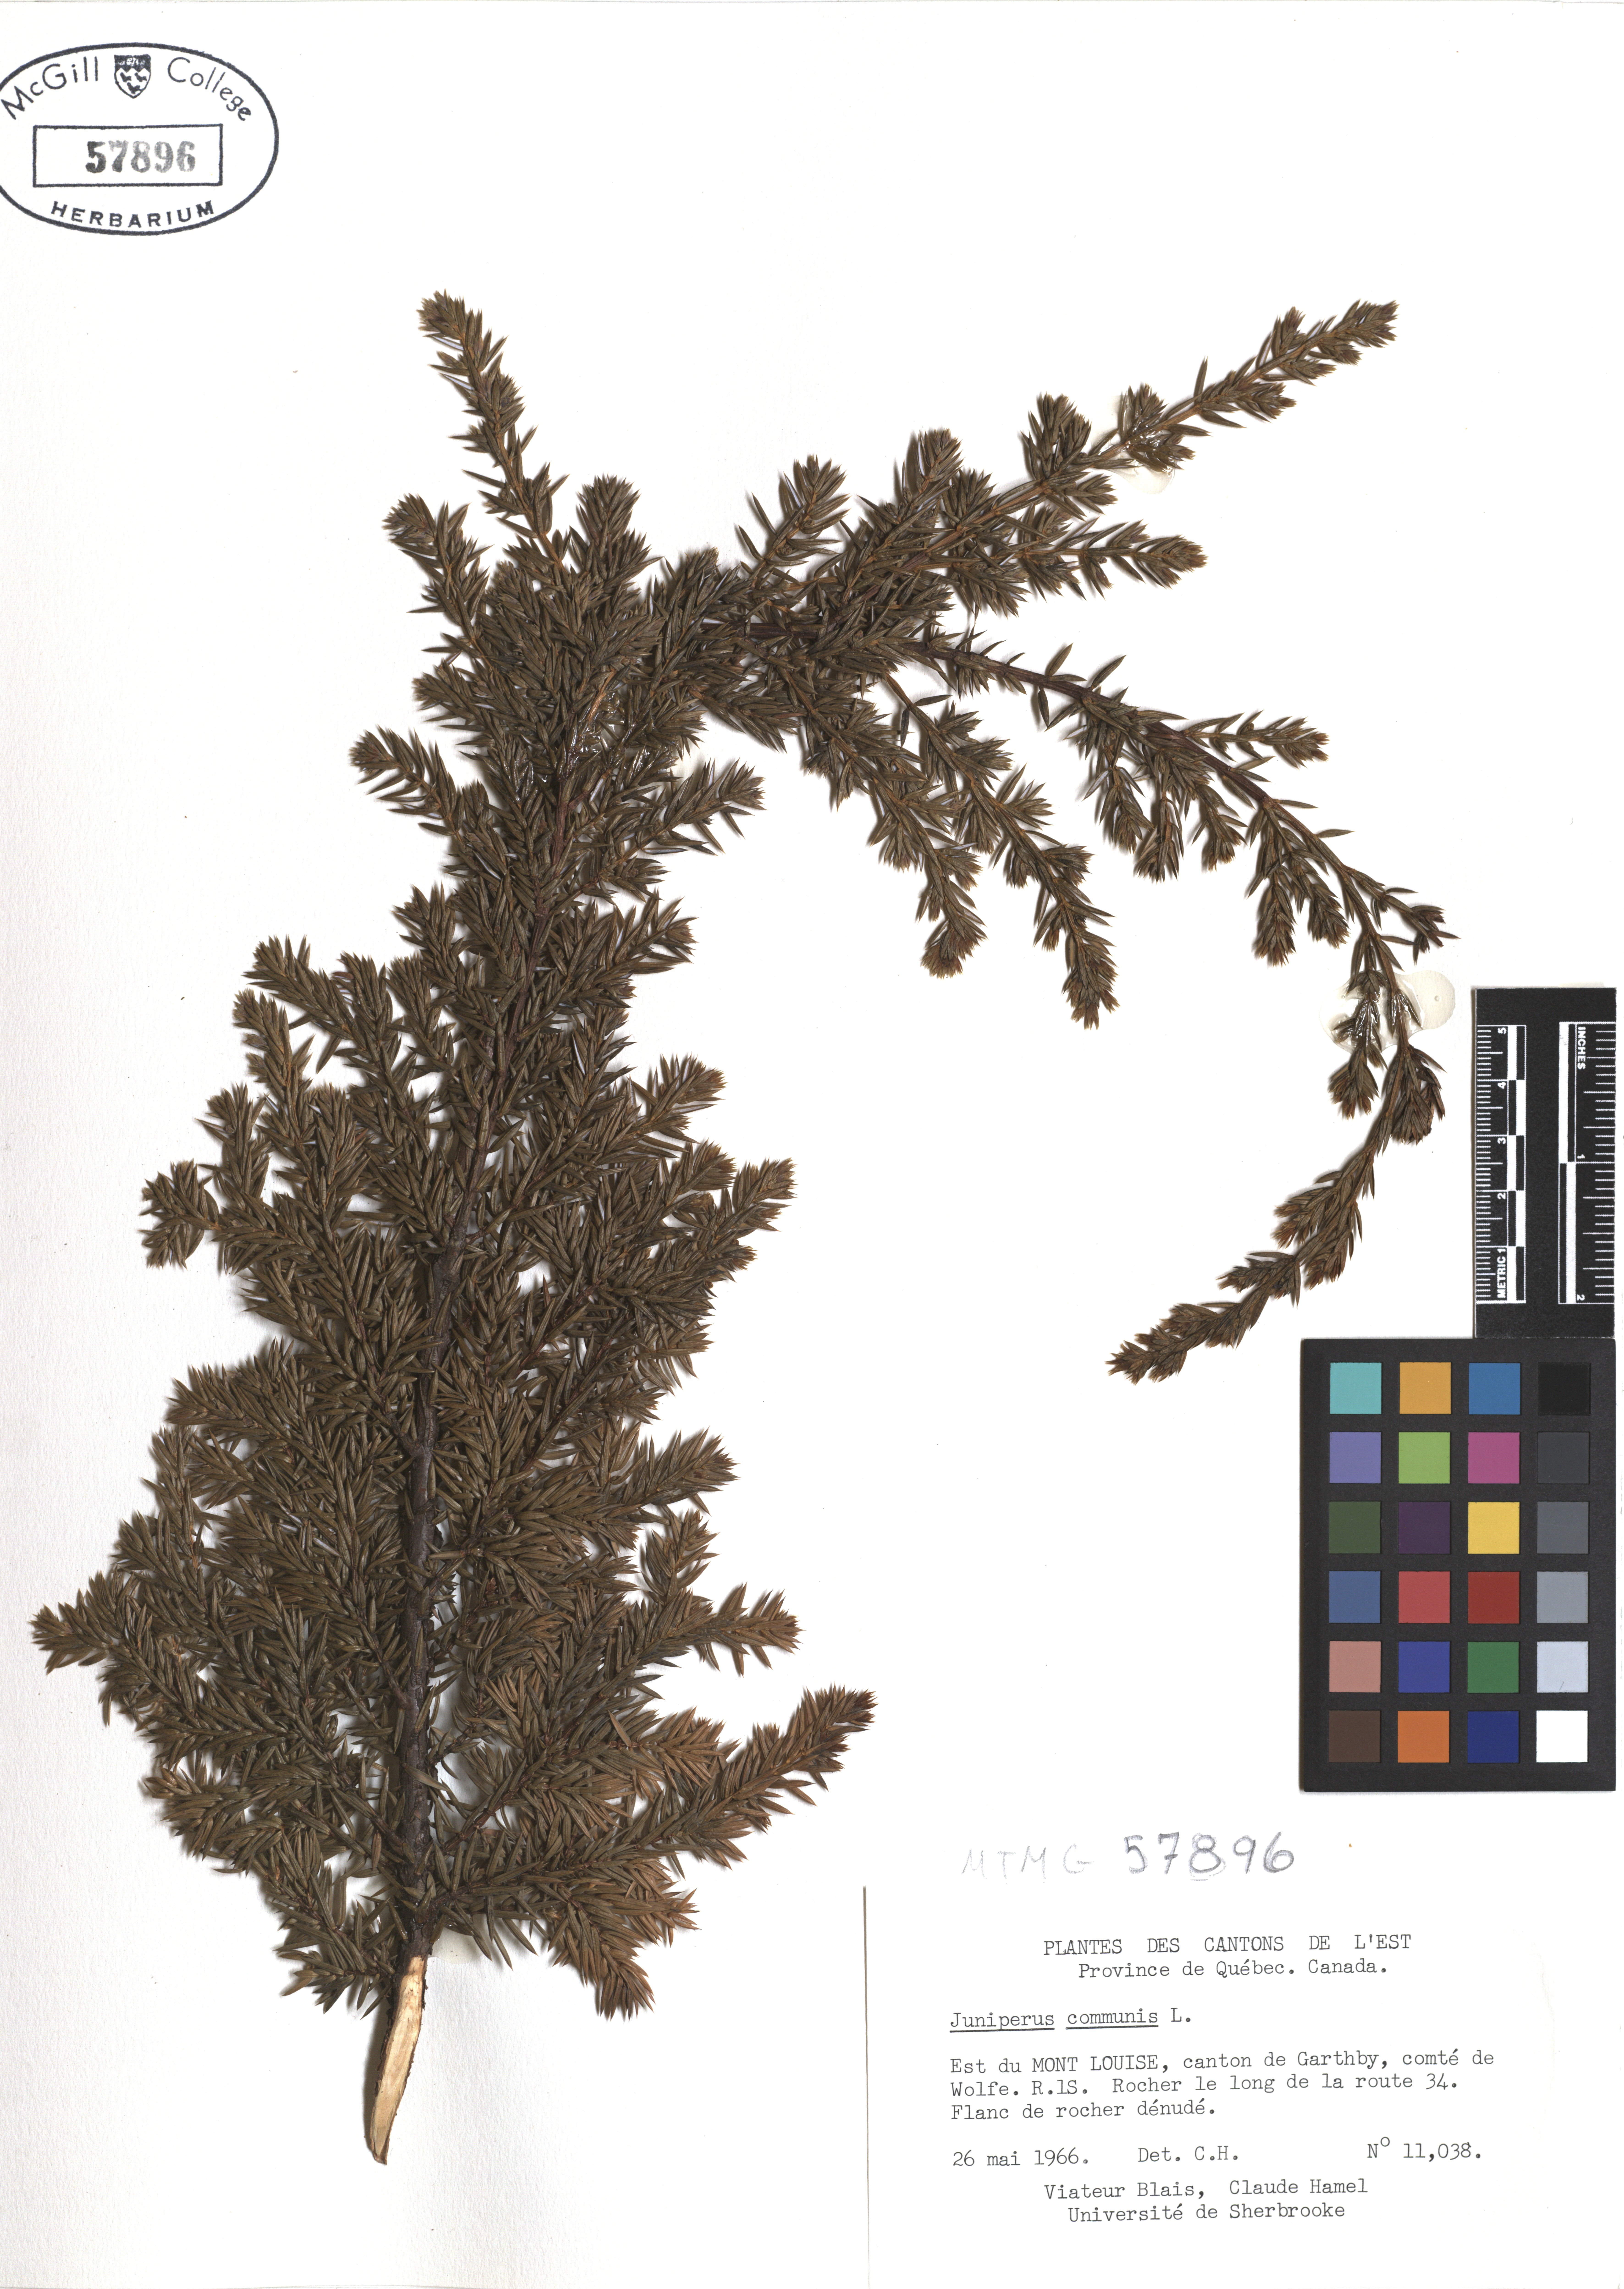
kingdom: Plantae
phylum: Tracheophyta
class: Pinopsida
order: Pinales
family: Cupressaceae
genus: Juniperus
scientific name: Juniperus communis
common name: Common juniper
